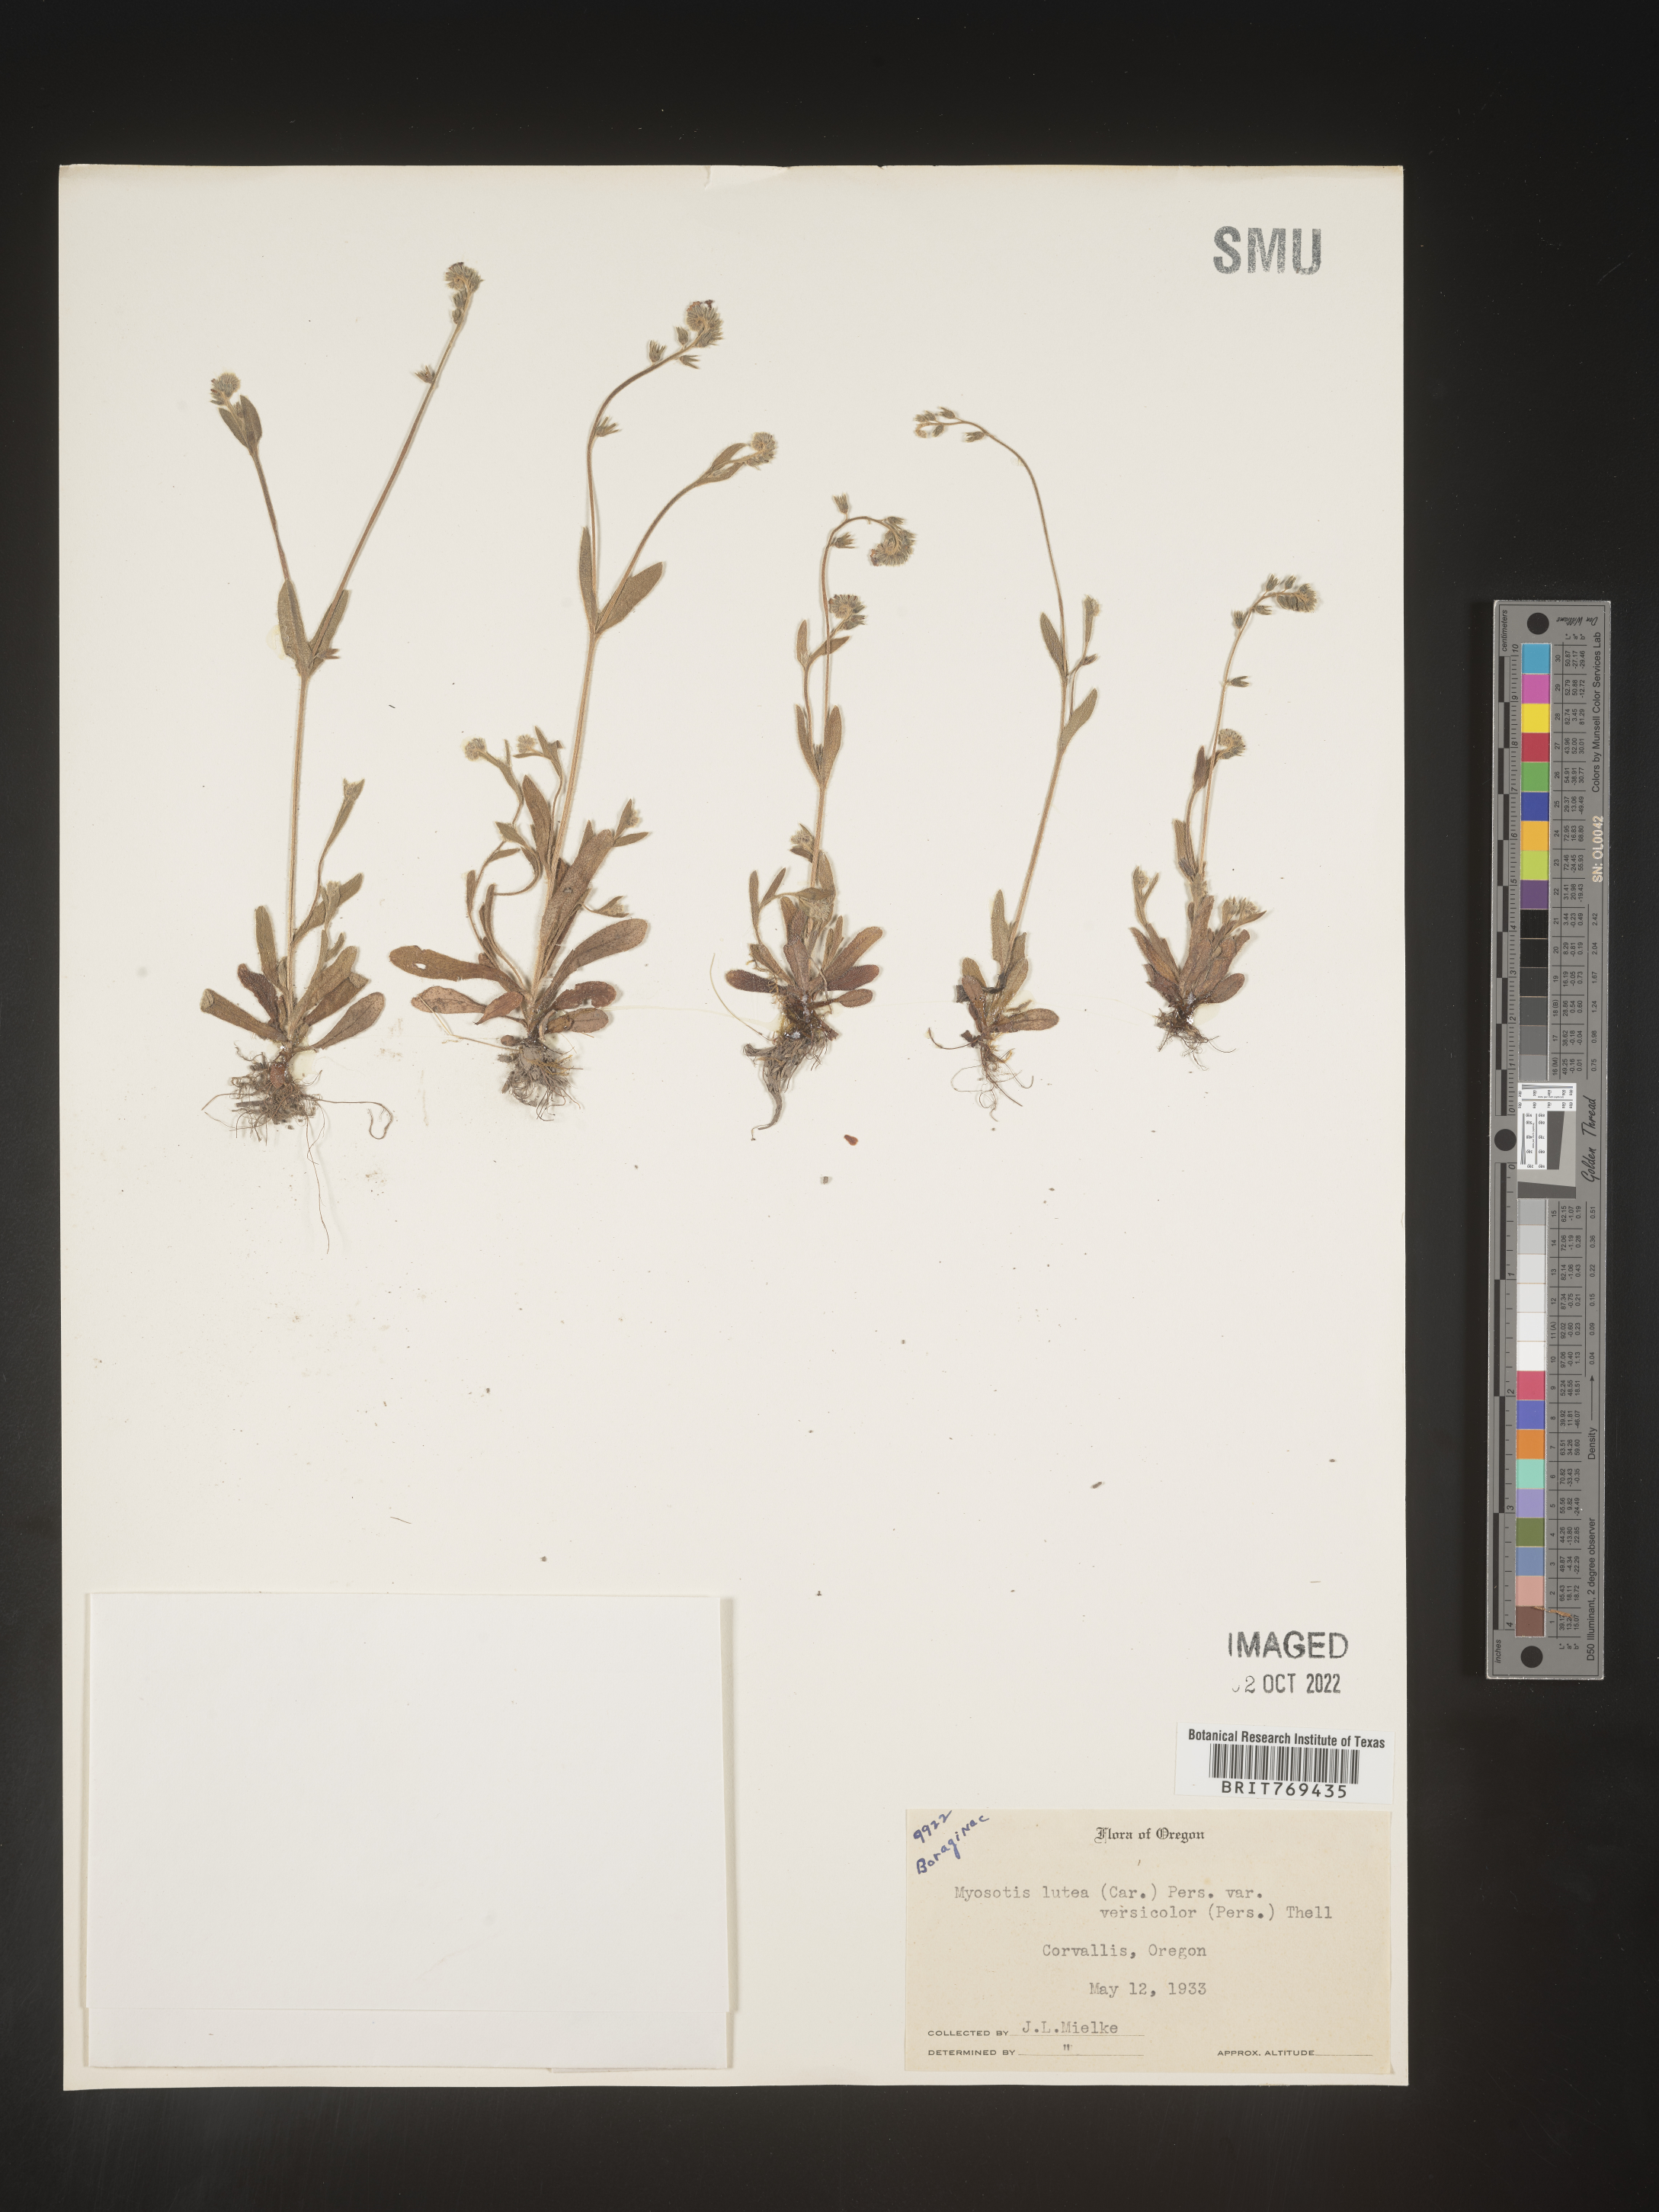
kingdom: Plantae
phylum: Tracheophyta
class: Magnoliopsida
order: Boraginales
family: Boraginaceae
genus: Myosotis
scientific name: Myosotis
